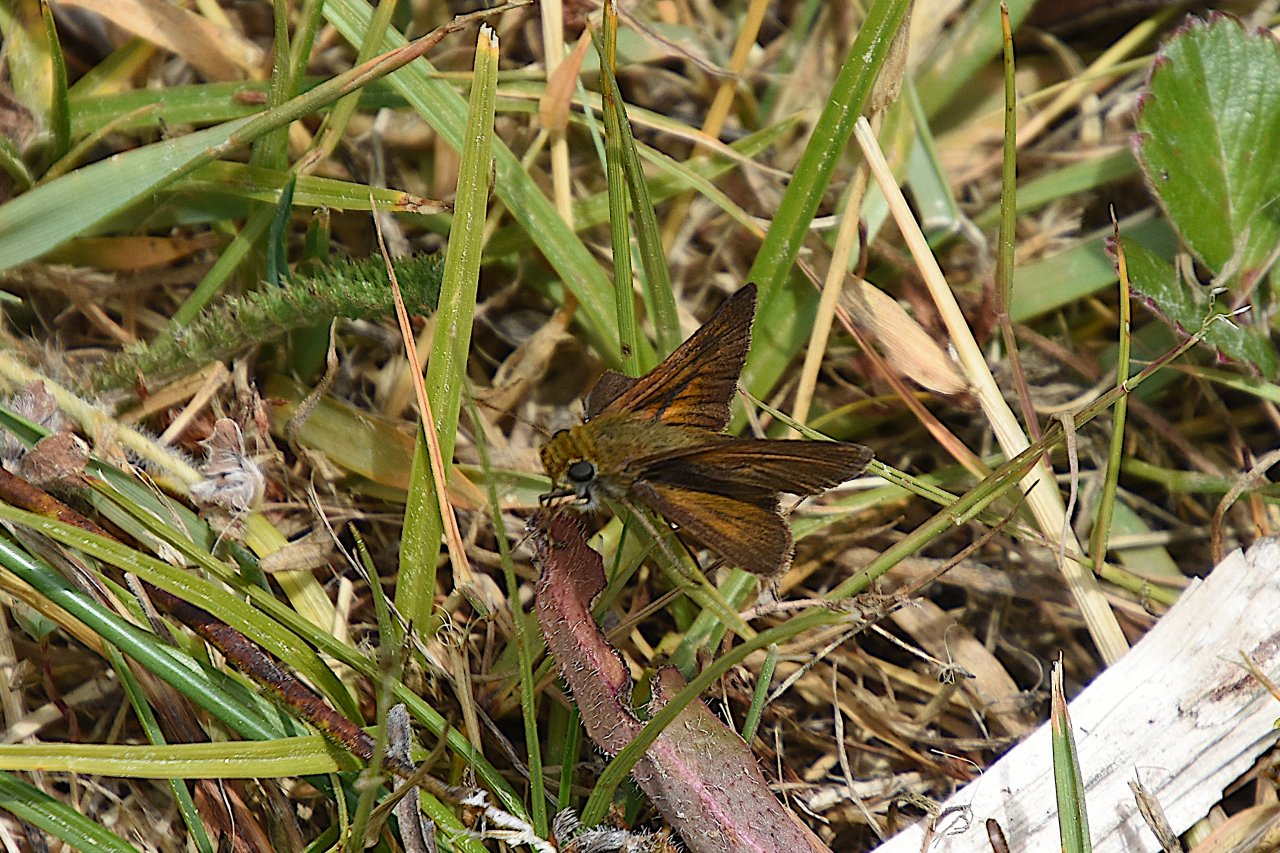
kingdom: Animalia
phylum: Arthropoda
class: Insecta
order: Lepidoptera
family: Hesperiidae
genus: Euphyes
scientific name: Euphyes vestris
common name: Dun Skipper
